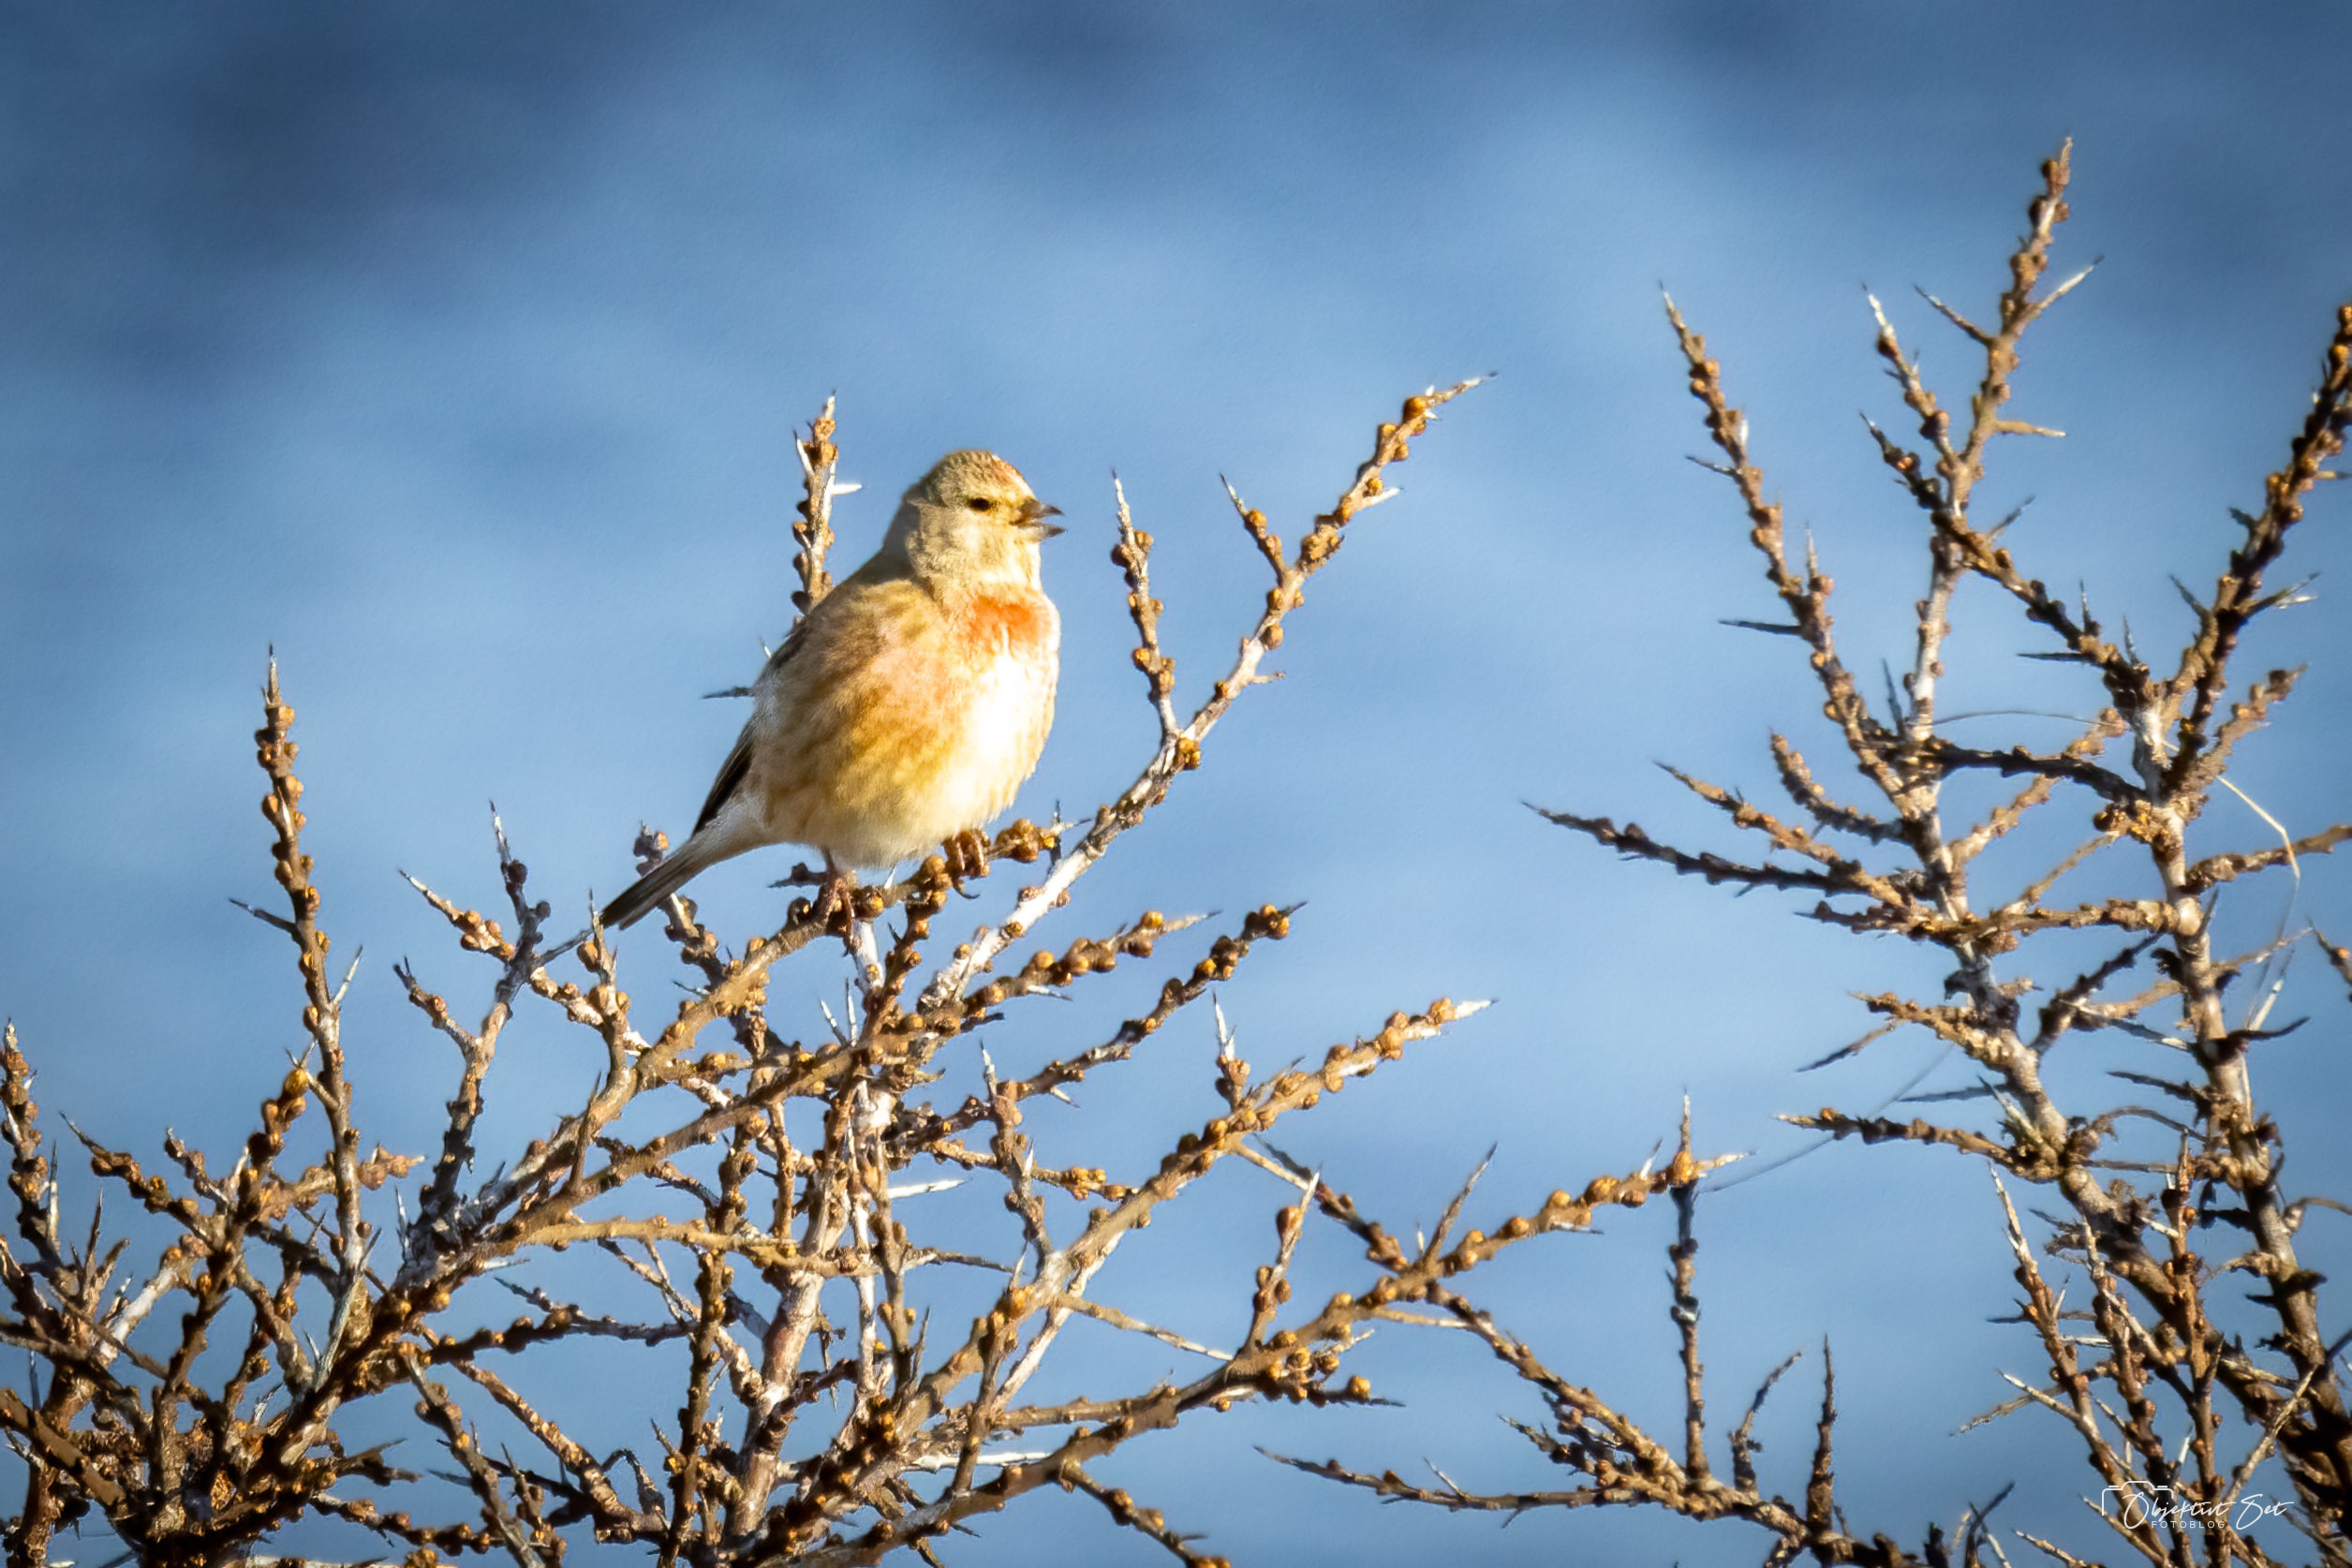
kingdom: Animalia
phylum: Chordata
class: Aves
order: Passeriformes
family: Fringillidae
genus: Linaria
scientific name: Linaria cannabina
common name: Tornirisk
